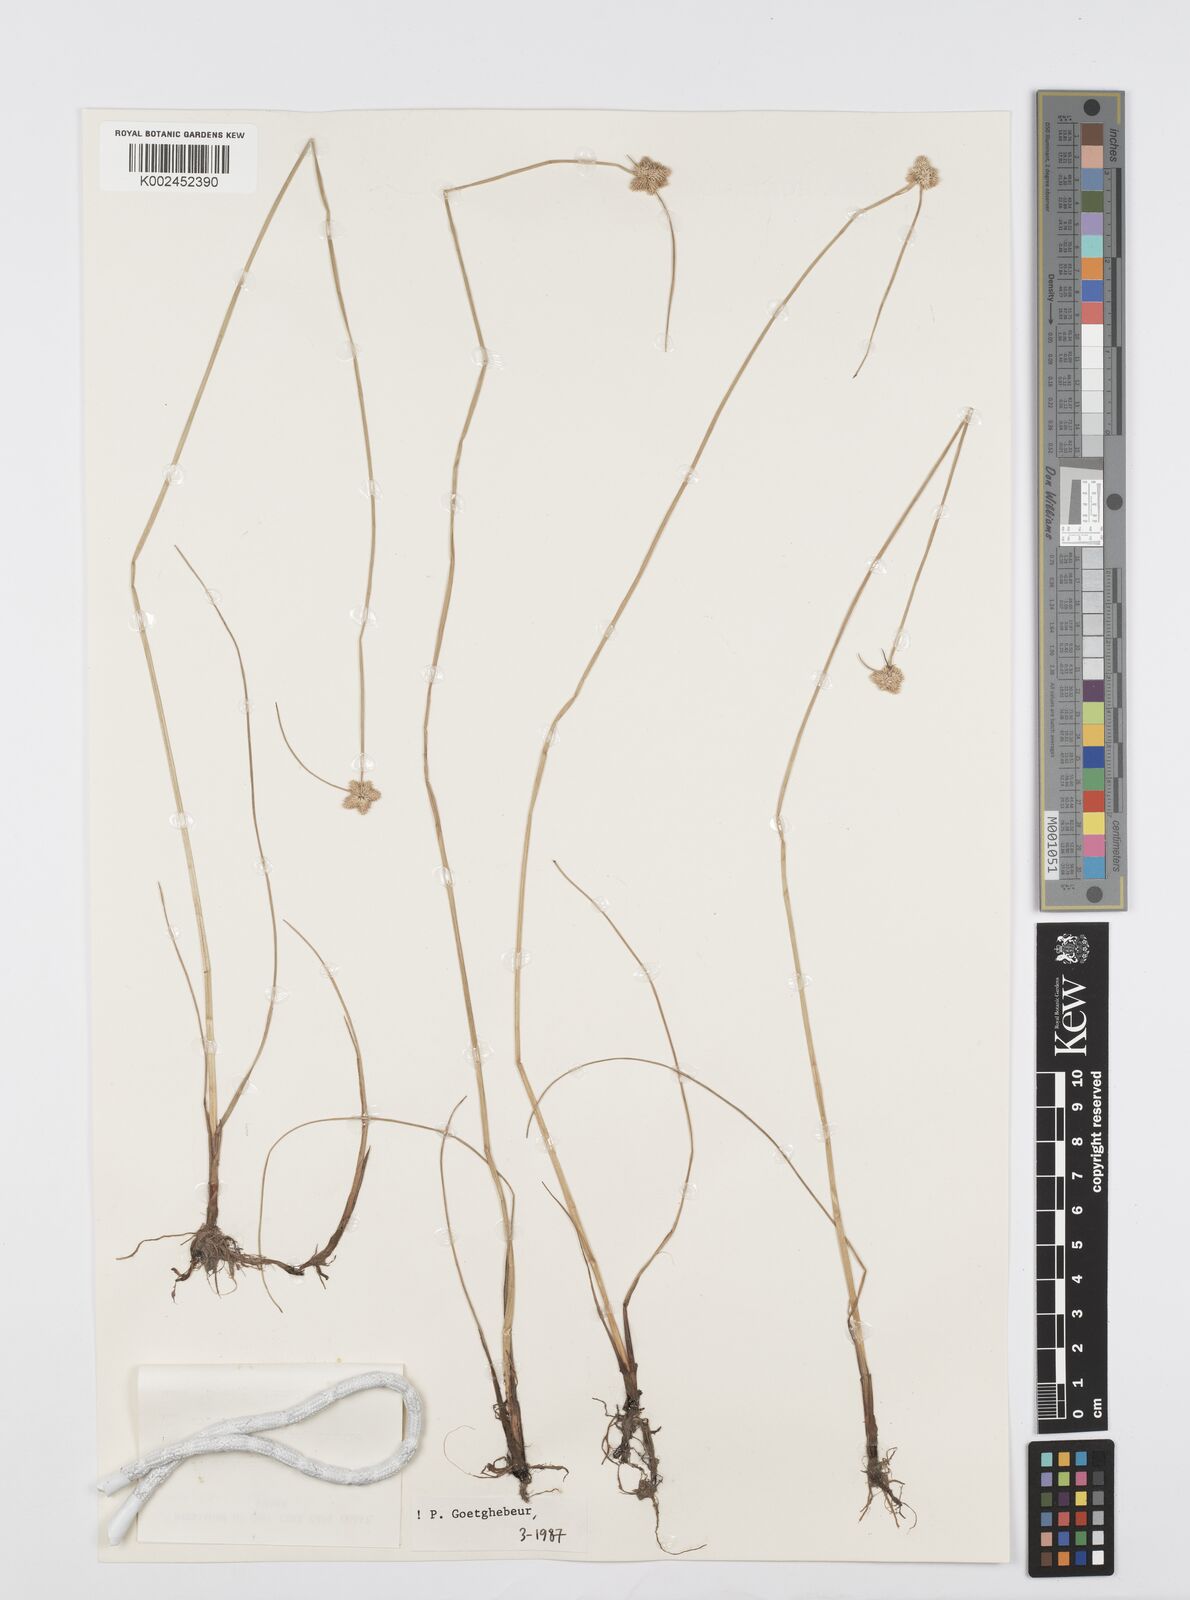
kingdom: Plantae
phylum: Tracheophyta
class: Liliopsida
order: Poales
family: Cyperaceae
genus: Cyperus
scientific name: Cyperus albiceps
